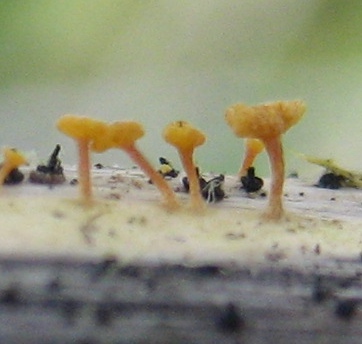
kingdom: Fungi
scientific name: Fungi
